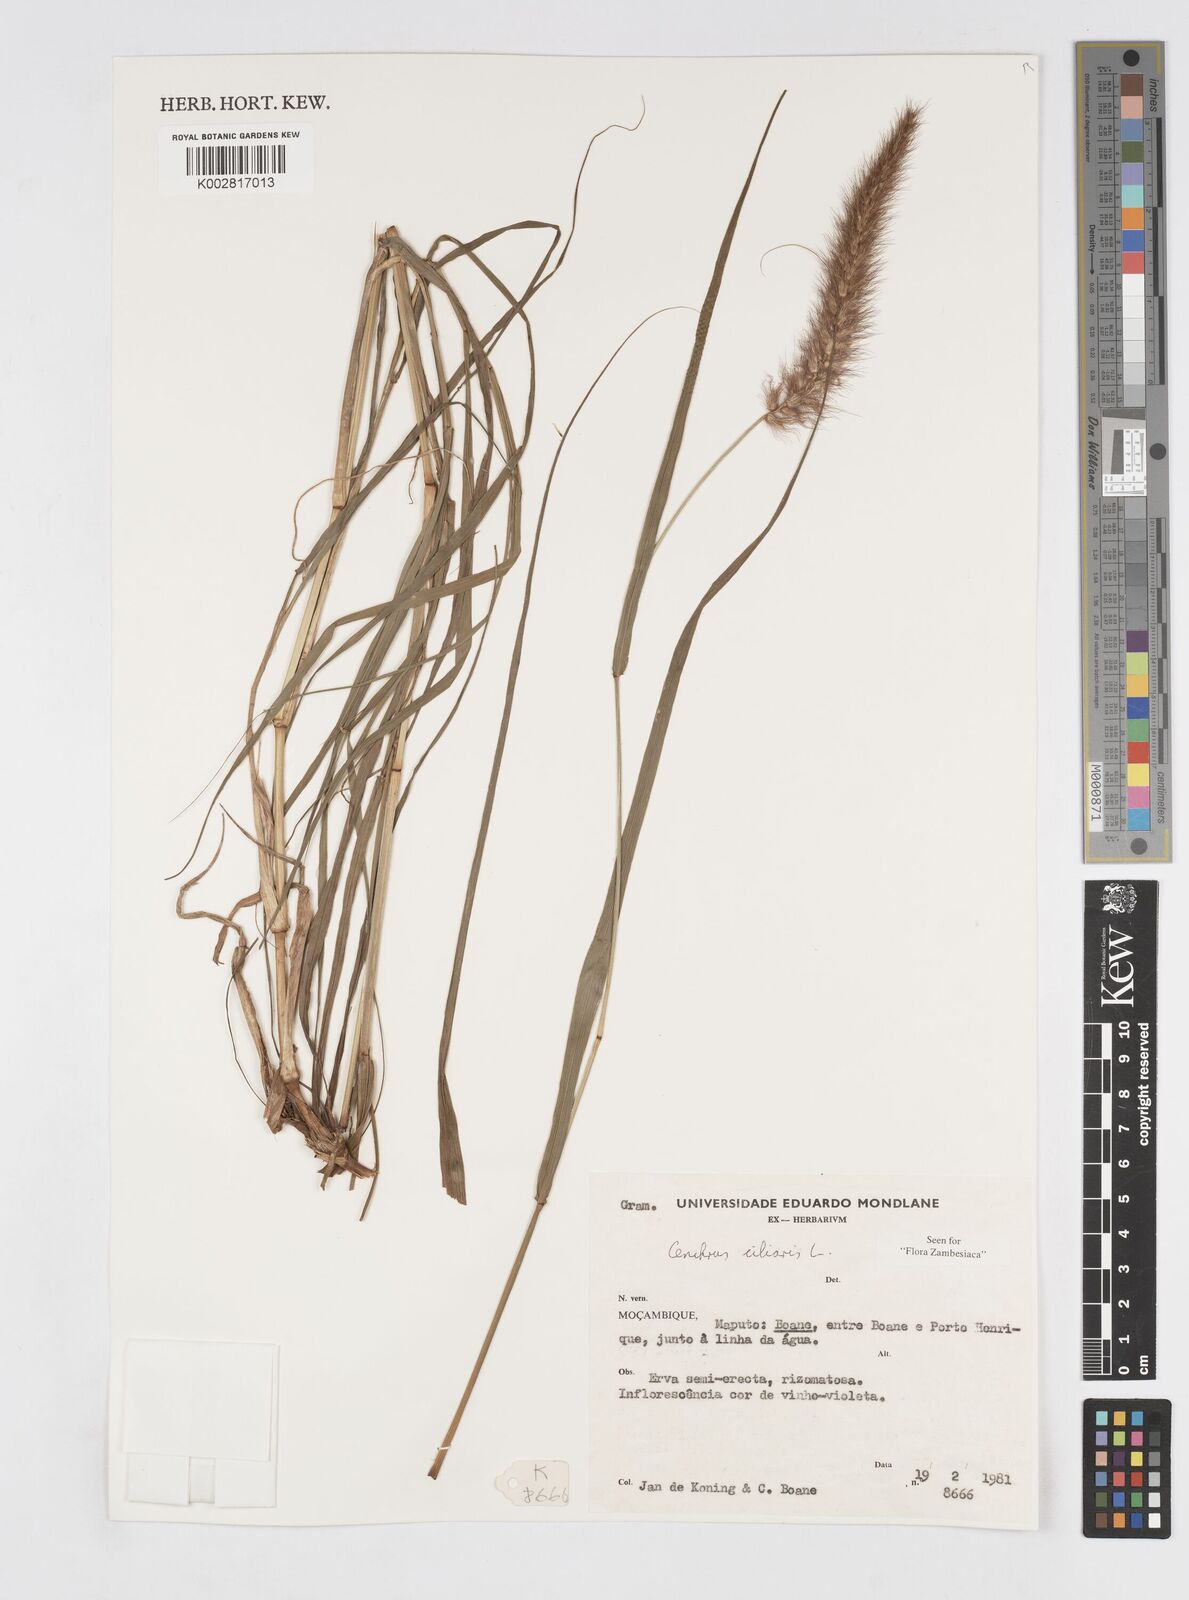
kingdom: Plantae
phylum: Tracheophyta
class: Liliopsida
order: Poales
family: Poaceae
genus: Cenchrus
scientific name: Cenchrus ciliaris
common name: Buffelgrass
